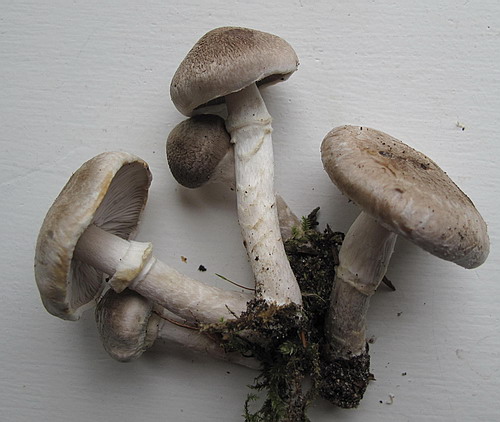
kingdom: Fungi
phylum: Basidiomycota
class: Agaricomycetes
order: Agaricales
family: Tricholomataceae
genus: Tricholoma
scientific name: Tricholoma cingulatum
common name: ring-ridderhat
